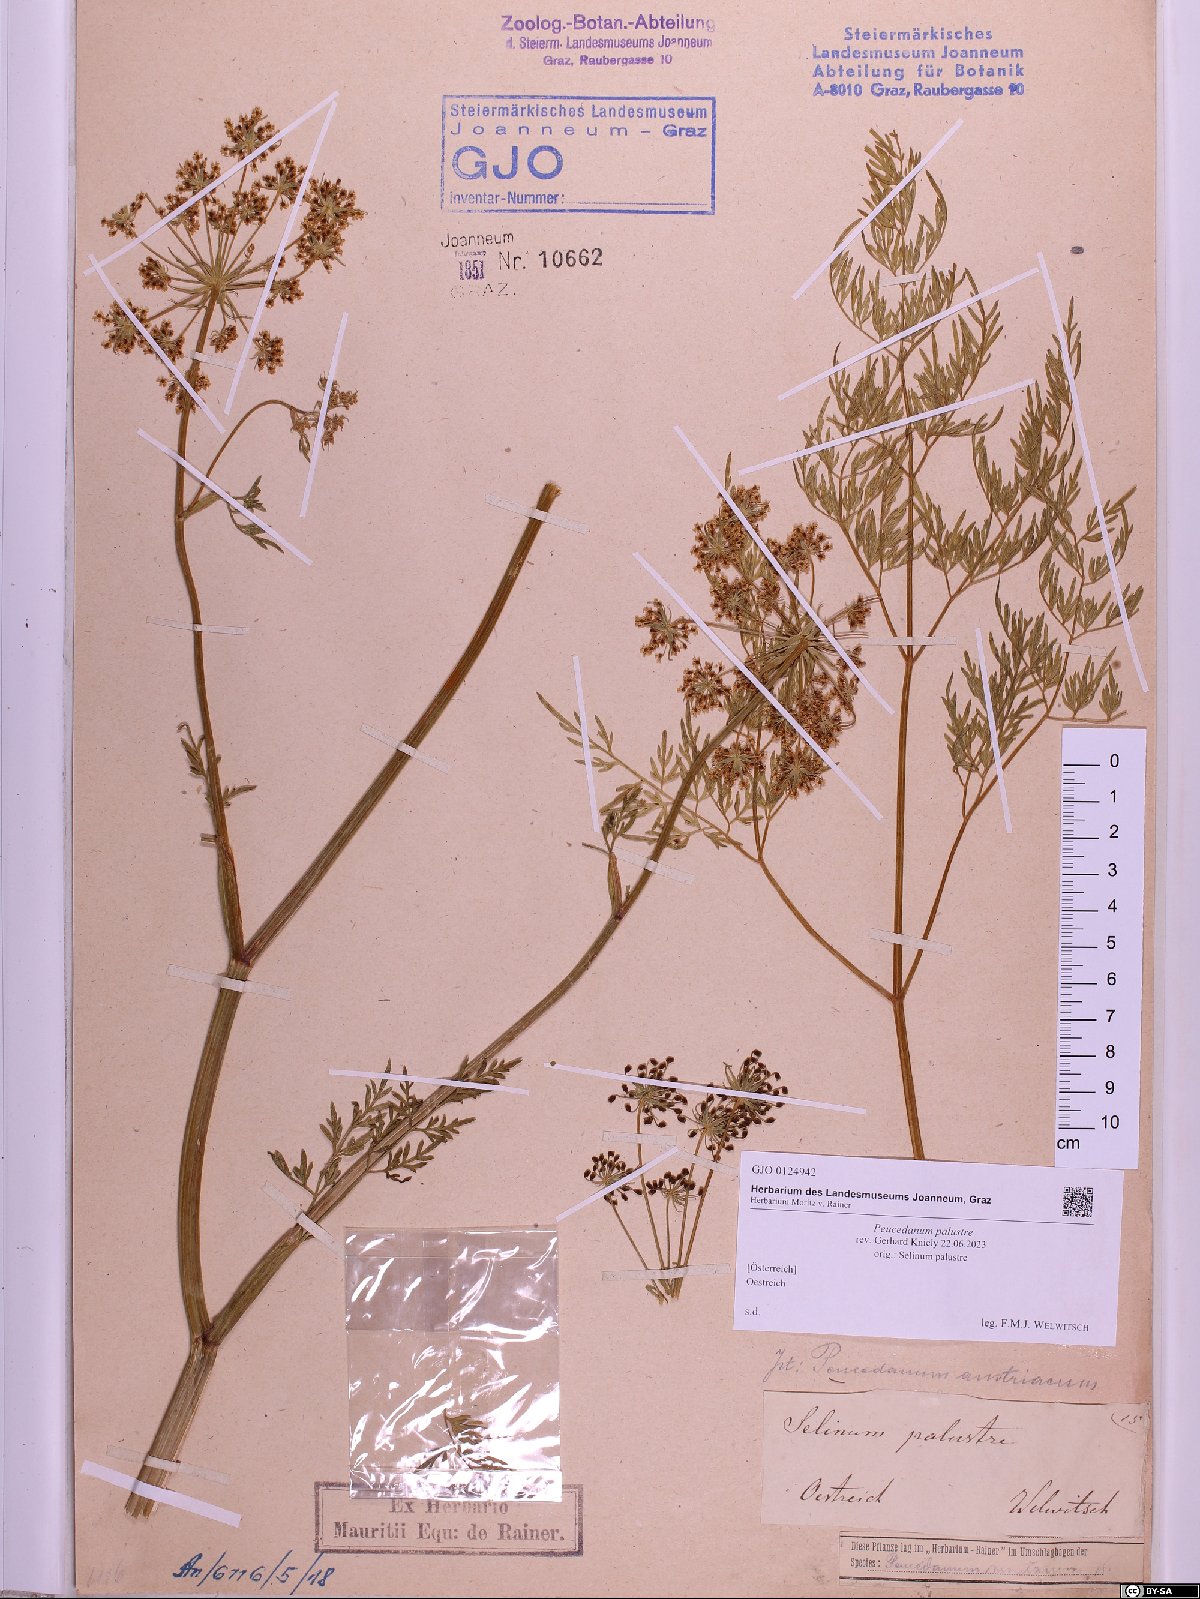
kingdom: Plantae
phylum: Tracheophyta
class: Magnoliopsida
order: Apiales
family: Apiaceae
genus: Thysselinum
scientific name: Thysselinum palustre
